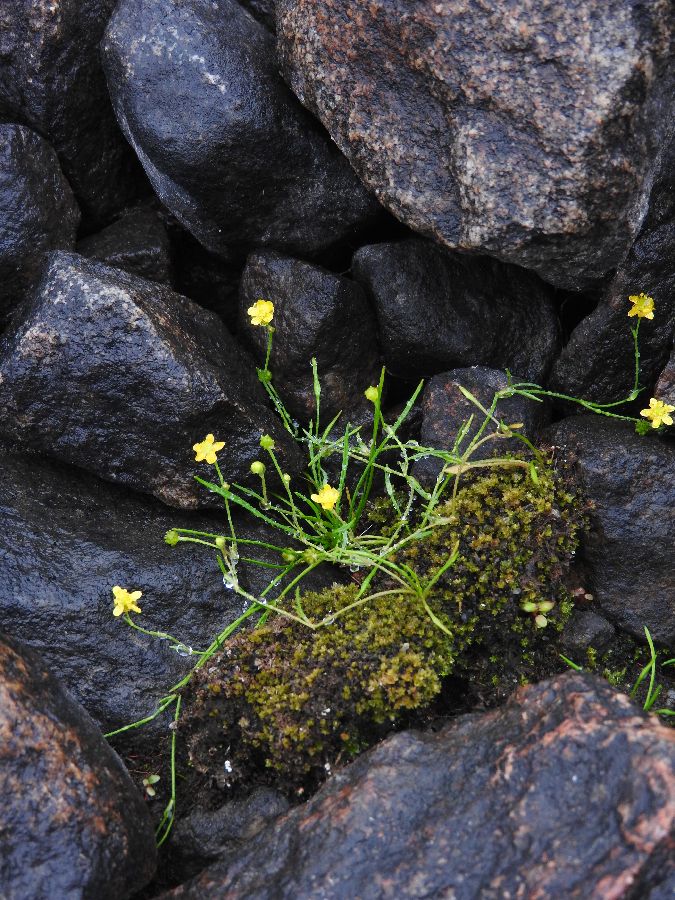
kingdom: Plantae
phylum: Tracheophyta
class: Magnoliopsida
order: Ranunculales
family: Ranunculaceae
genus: Ranunculus
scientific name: Ranunculus reptans
